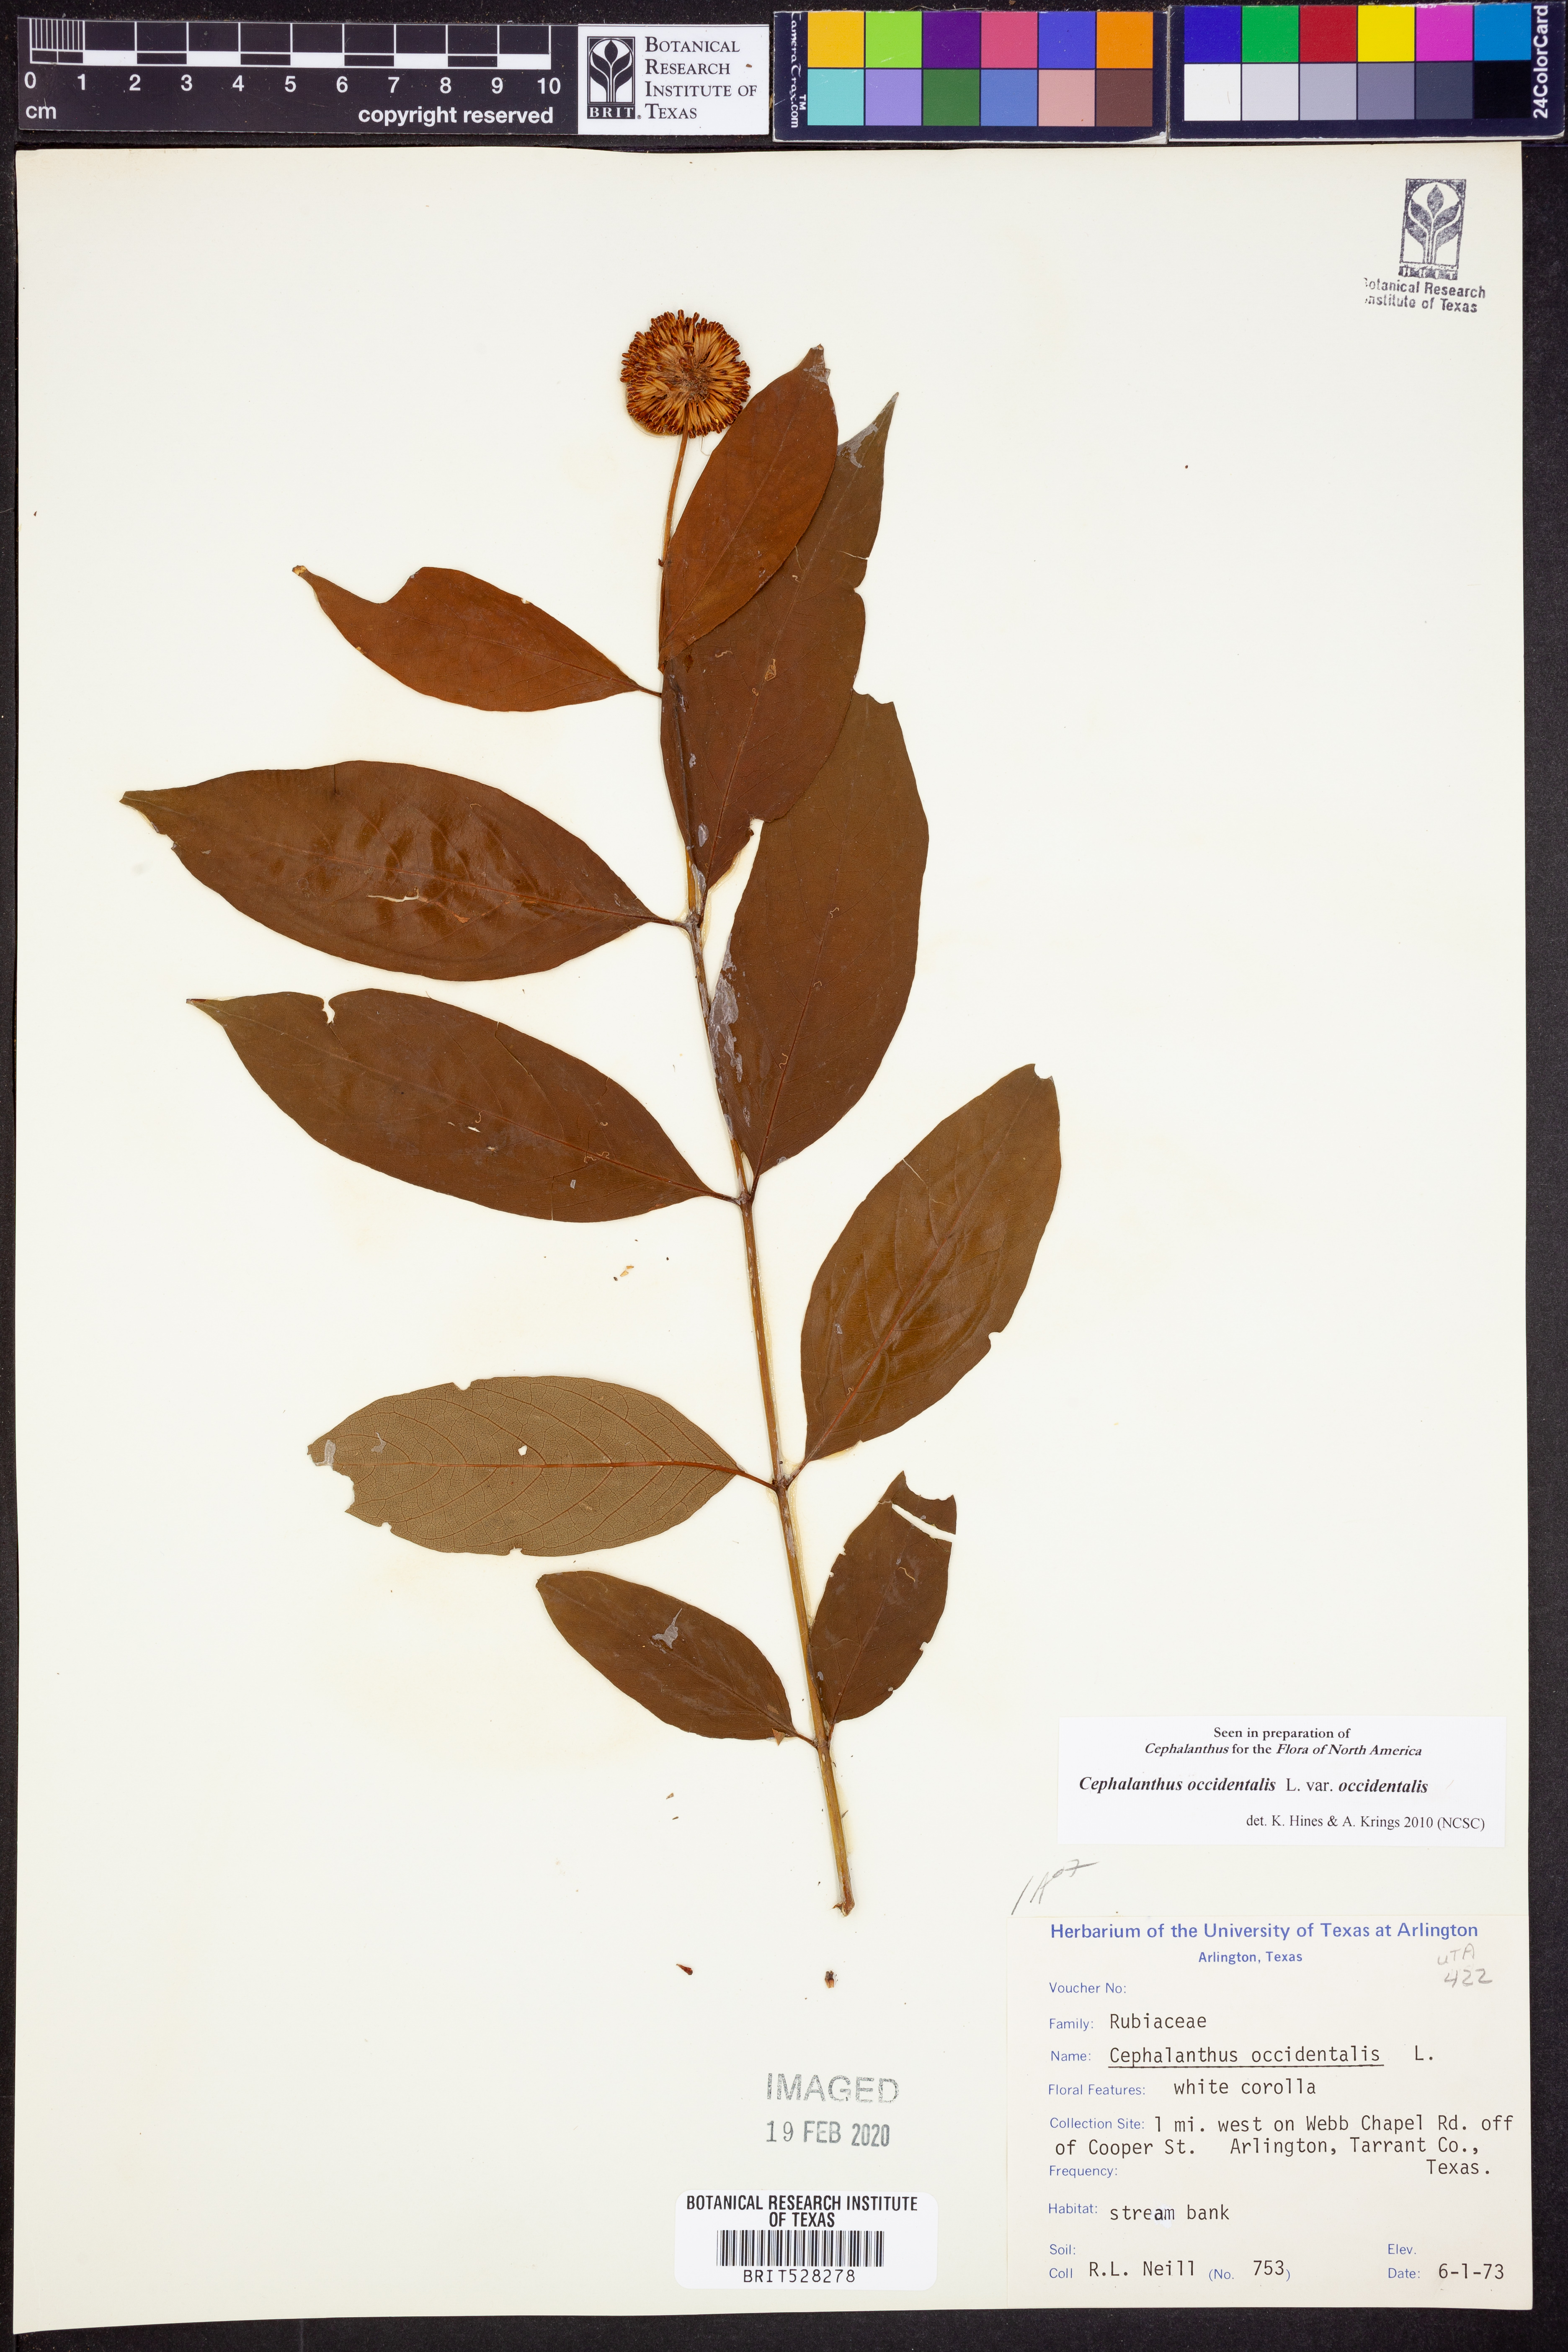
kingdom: Plantae
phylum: Tracheophyta
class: Magnoliopsida
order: Gentianales
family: Rubiaceae
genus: Cephalanthus
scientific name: Cephalanthus occidentalis
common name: Button-willow
